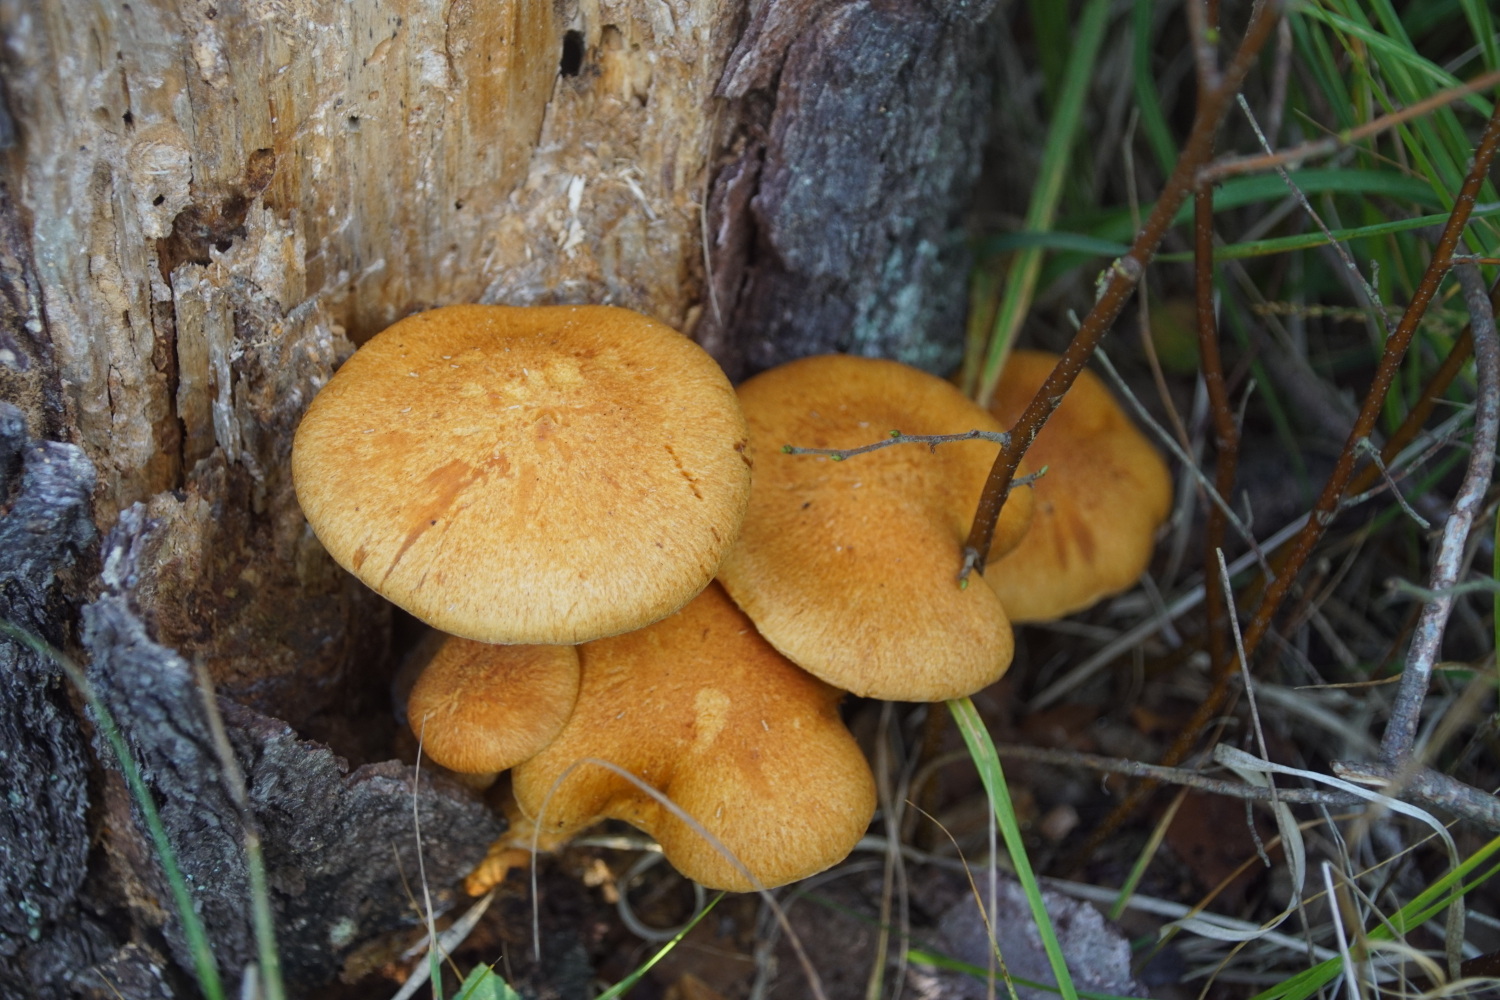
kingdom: Fungi
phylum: Basidiomycota
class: Agaricomycetes
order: Agaricales
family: Hymenogastraceae
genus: Gymnopilus
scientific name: Gymnopilus spectabilis
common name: fibret flammehat
